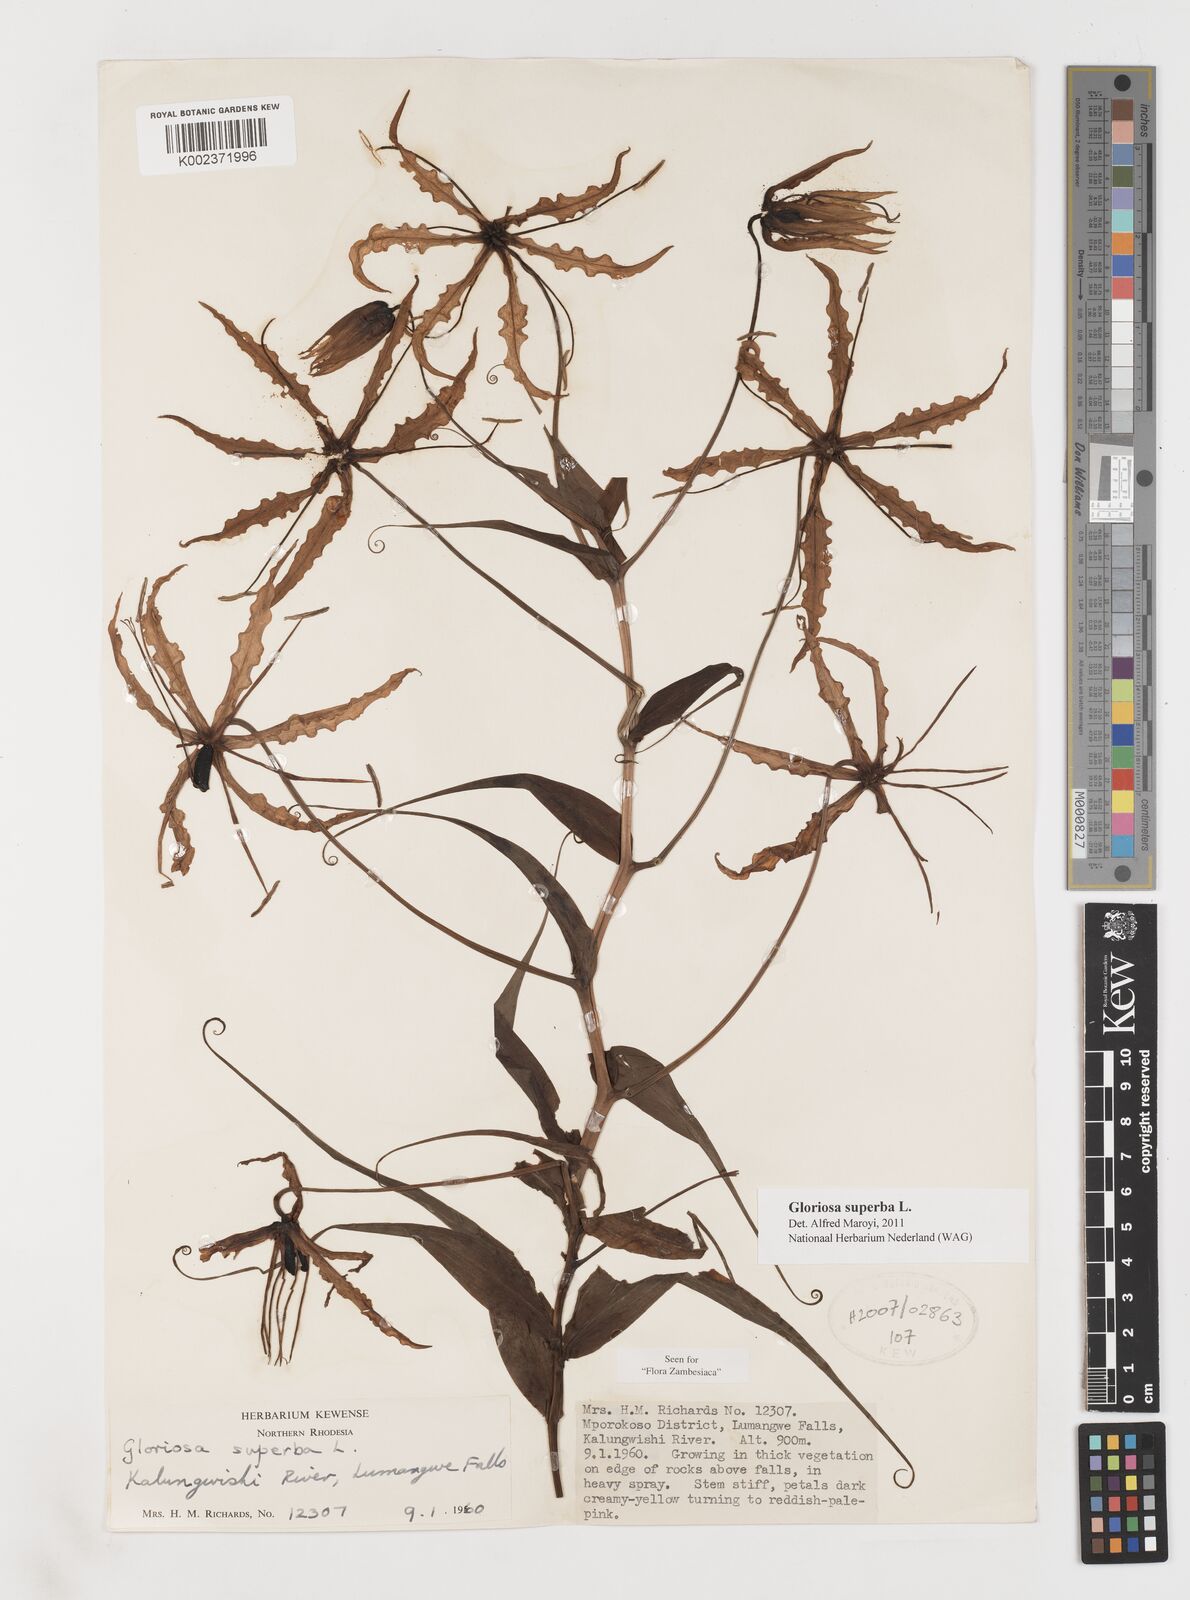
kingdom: Plantae
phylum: Tracheophyta
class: Liliopsida
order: Liliales
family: Colchicaceae
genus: Gloriosa
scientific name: Gloriosa superba
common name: Flame lily
